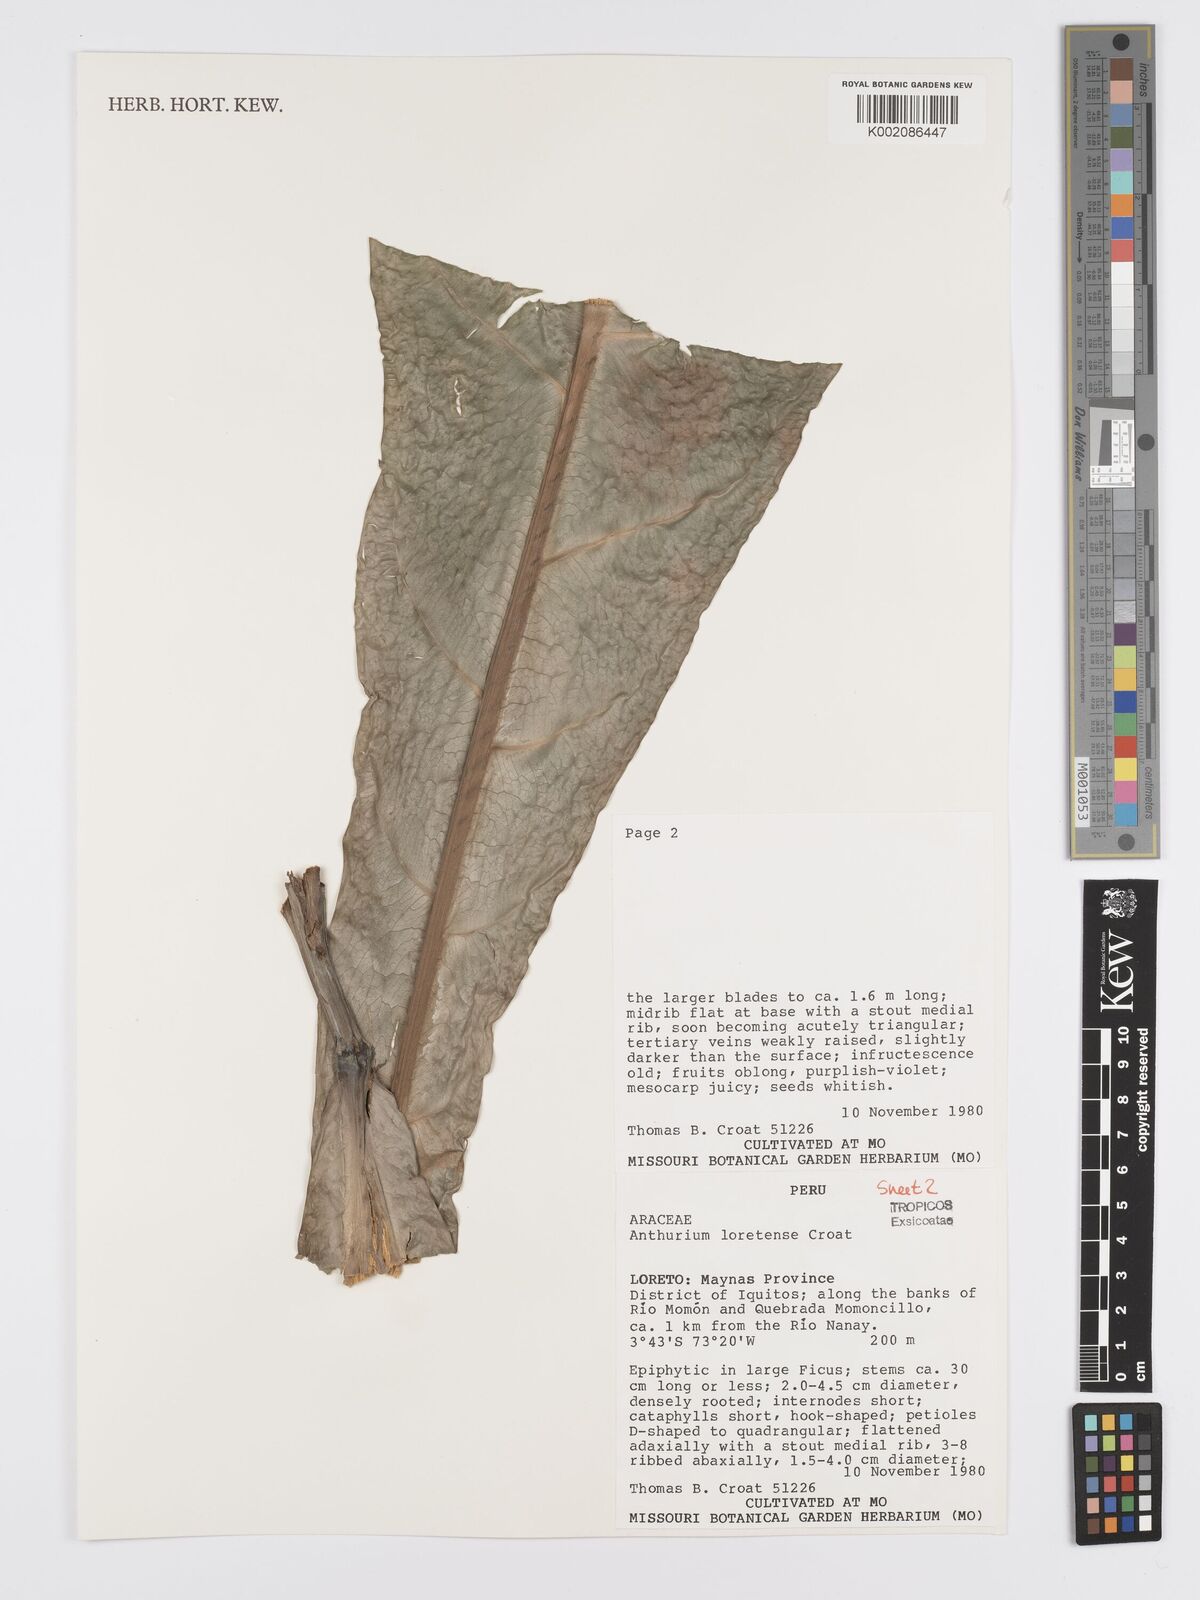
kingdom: Plantae
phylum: Tracheophyta
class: Liliopsida
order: Alismatales
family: Araceae
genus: Anthurium
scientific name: Anthurium loretense
